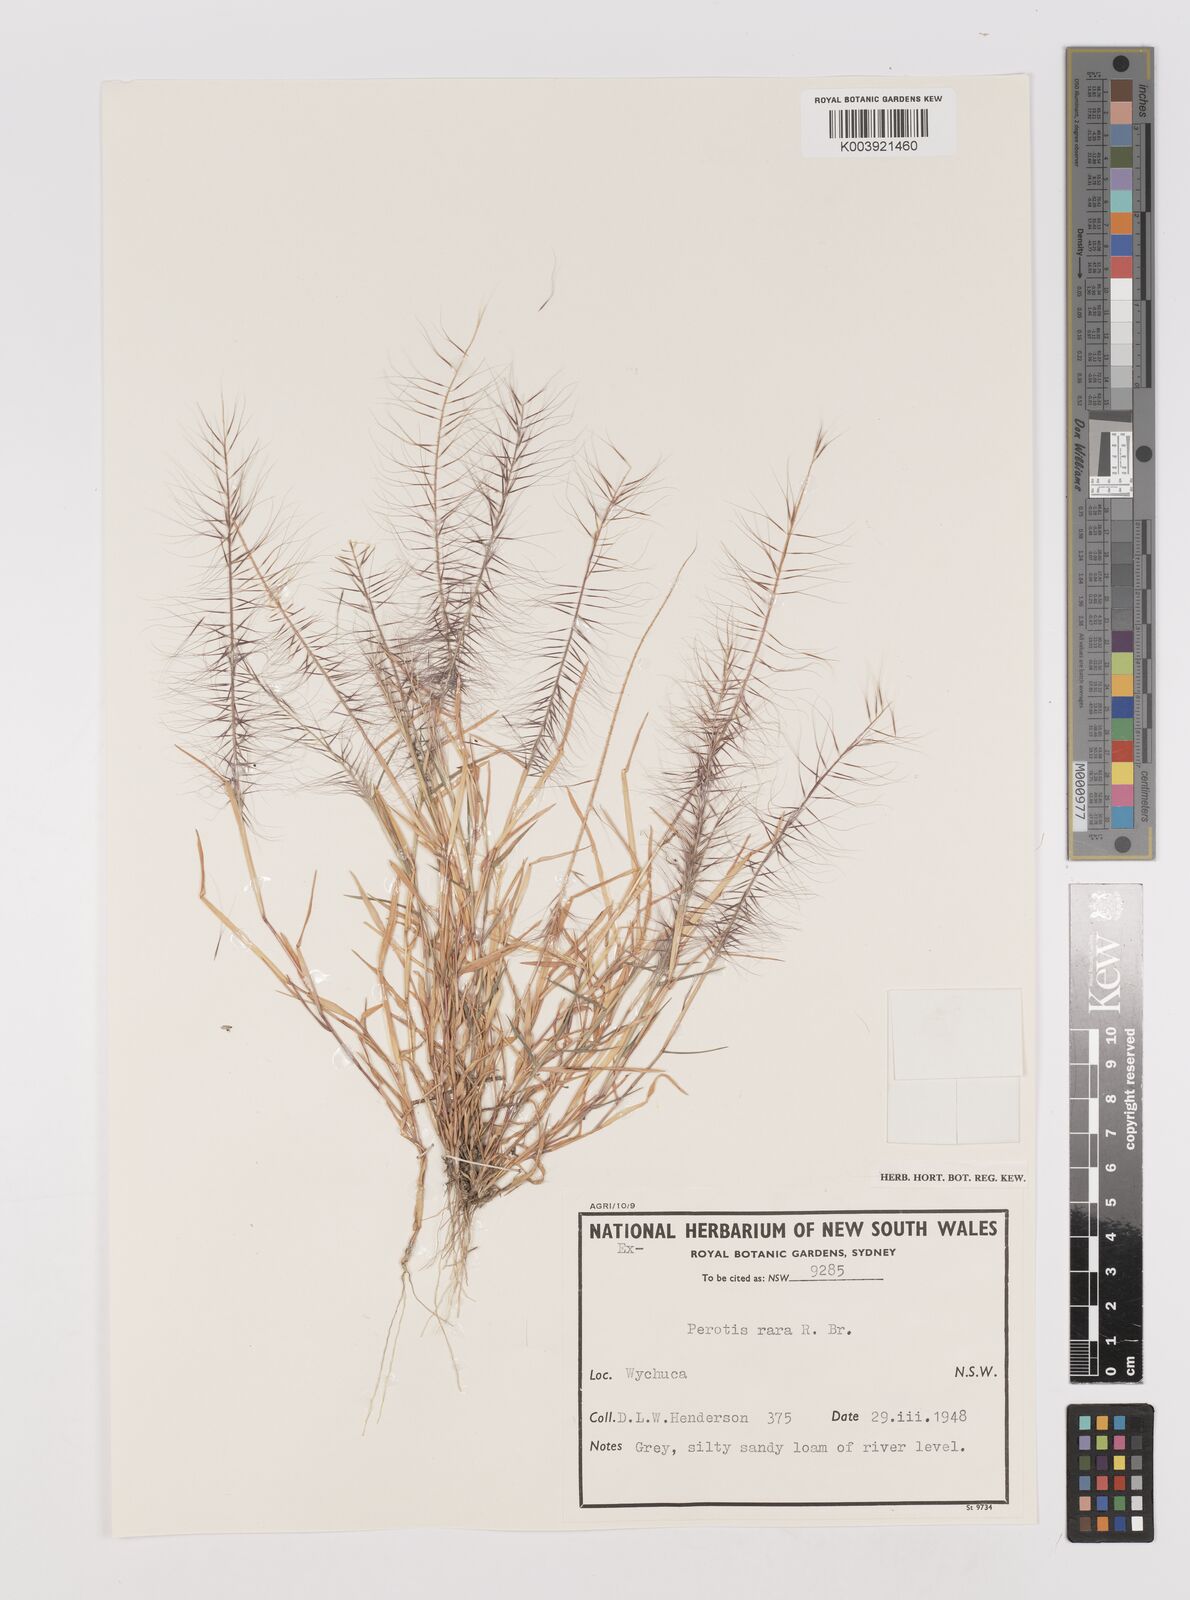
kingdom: Plantae
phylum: Tracheophyta
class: Liliopsida
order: Poales
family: Poaceae
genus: Perotis
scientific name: Perotis rara
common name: Comet grass
